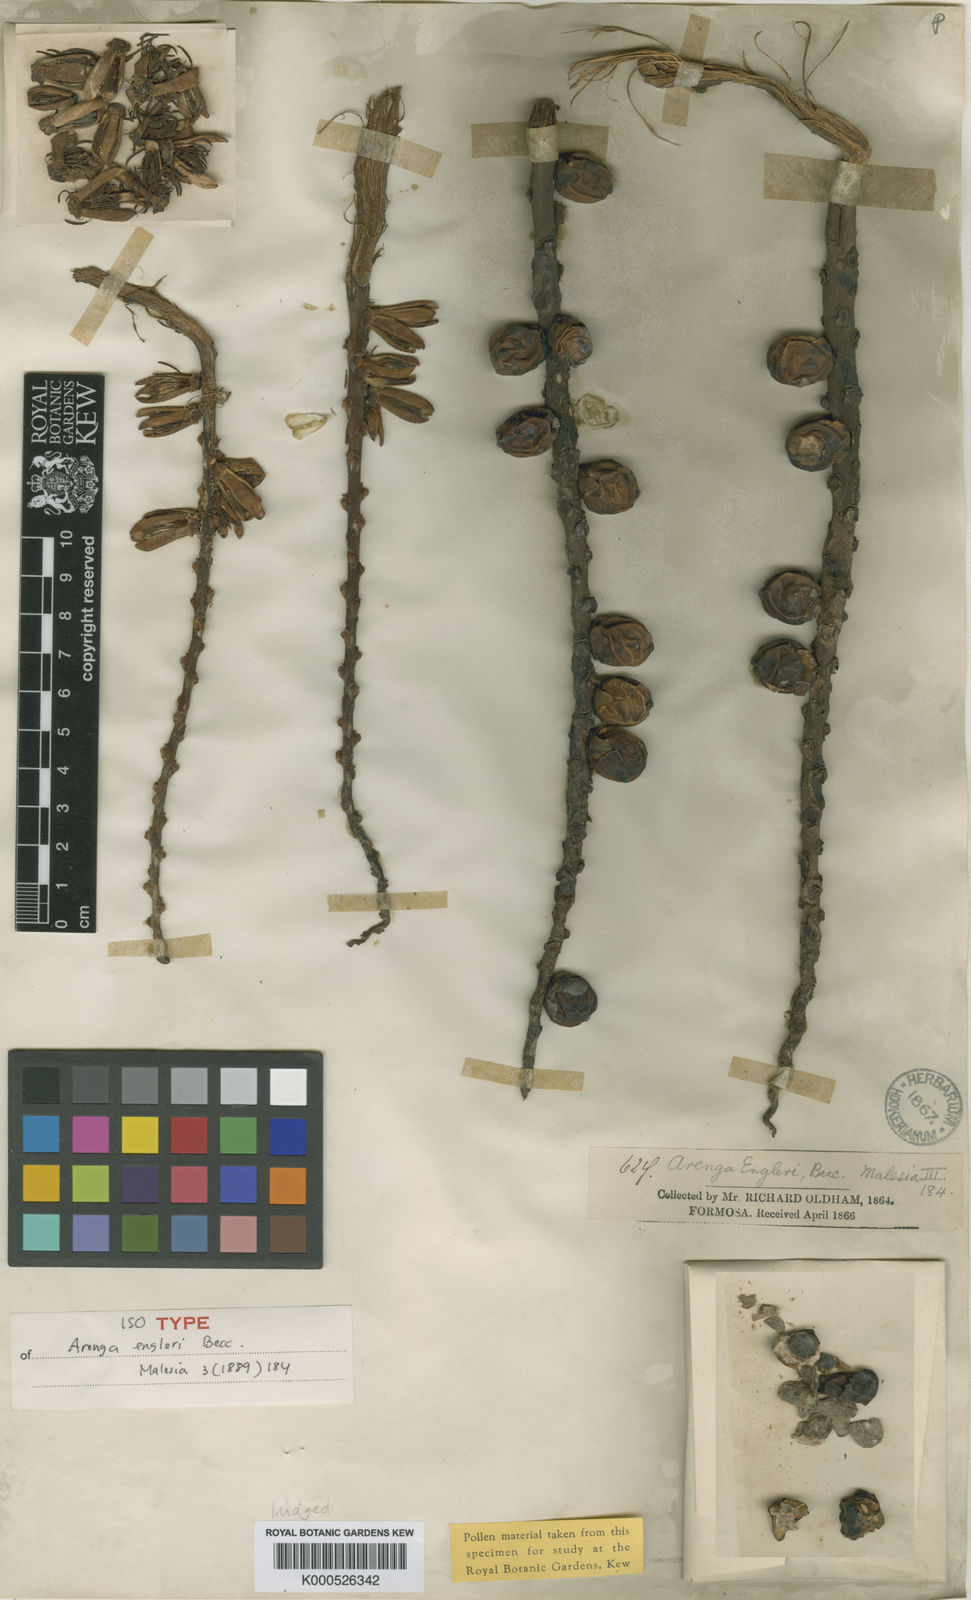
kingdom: Plantae
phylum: Tracheophyta
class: Liliopsida
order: Arecales
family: Arecaceae
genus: Arenga
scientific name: Arenga engleri
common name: Formosan sugar palm
